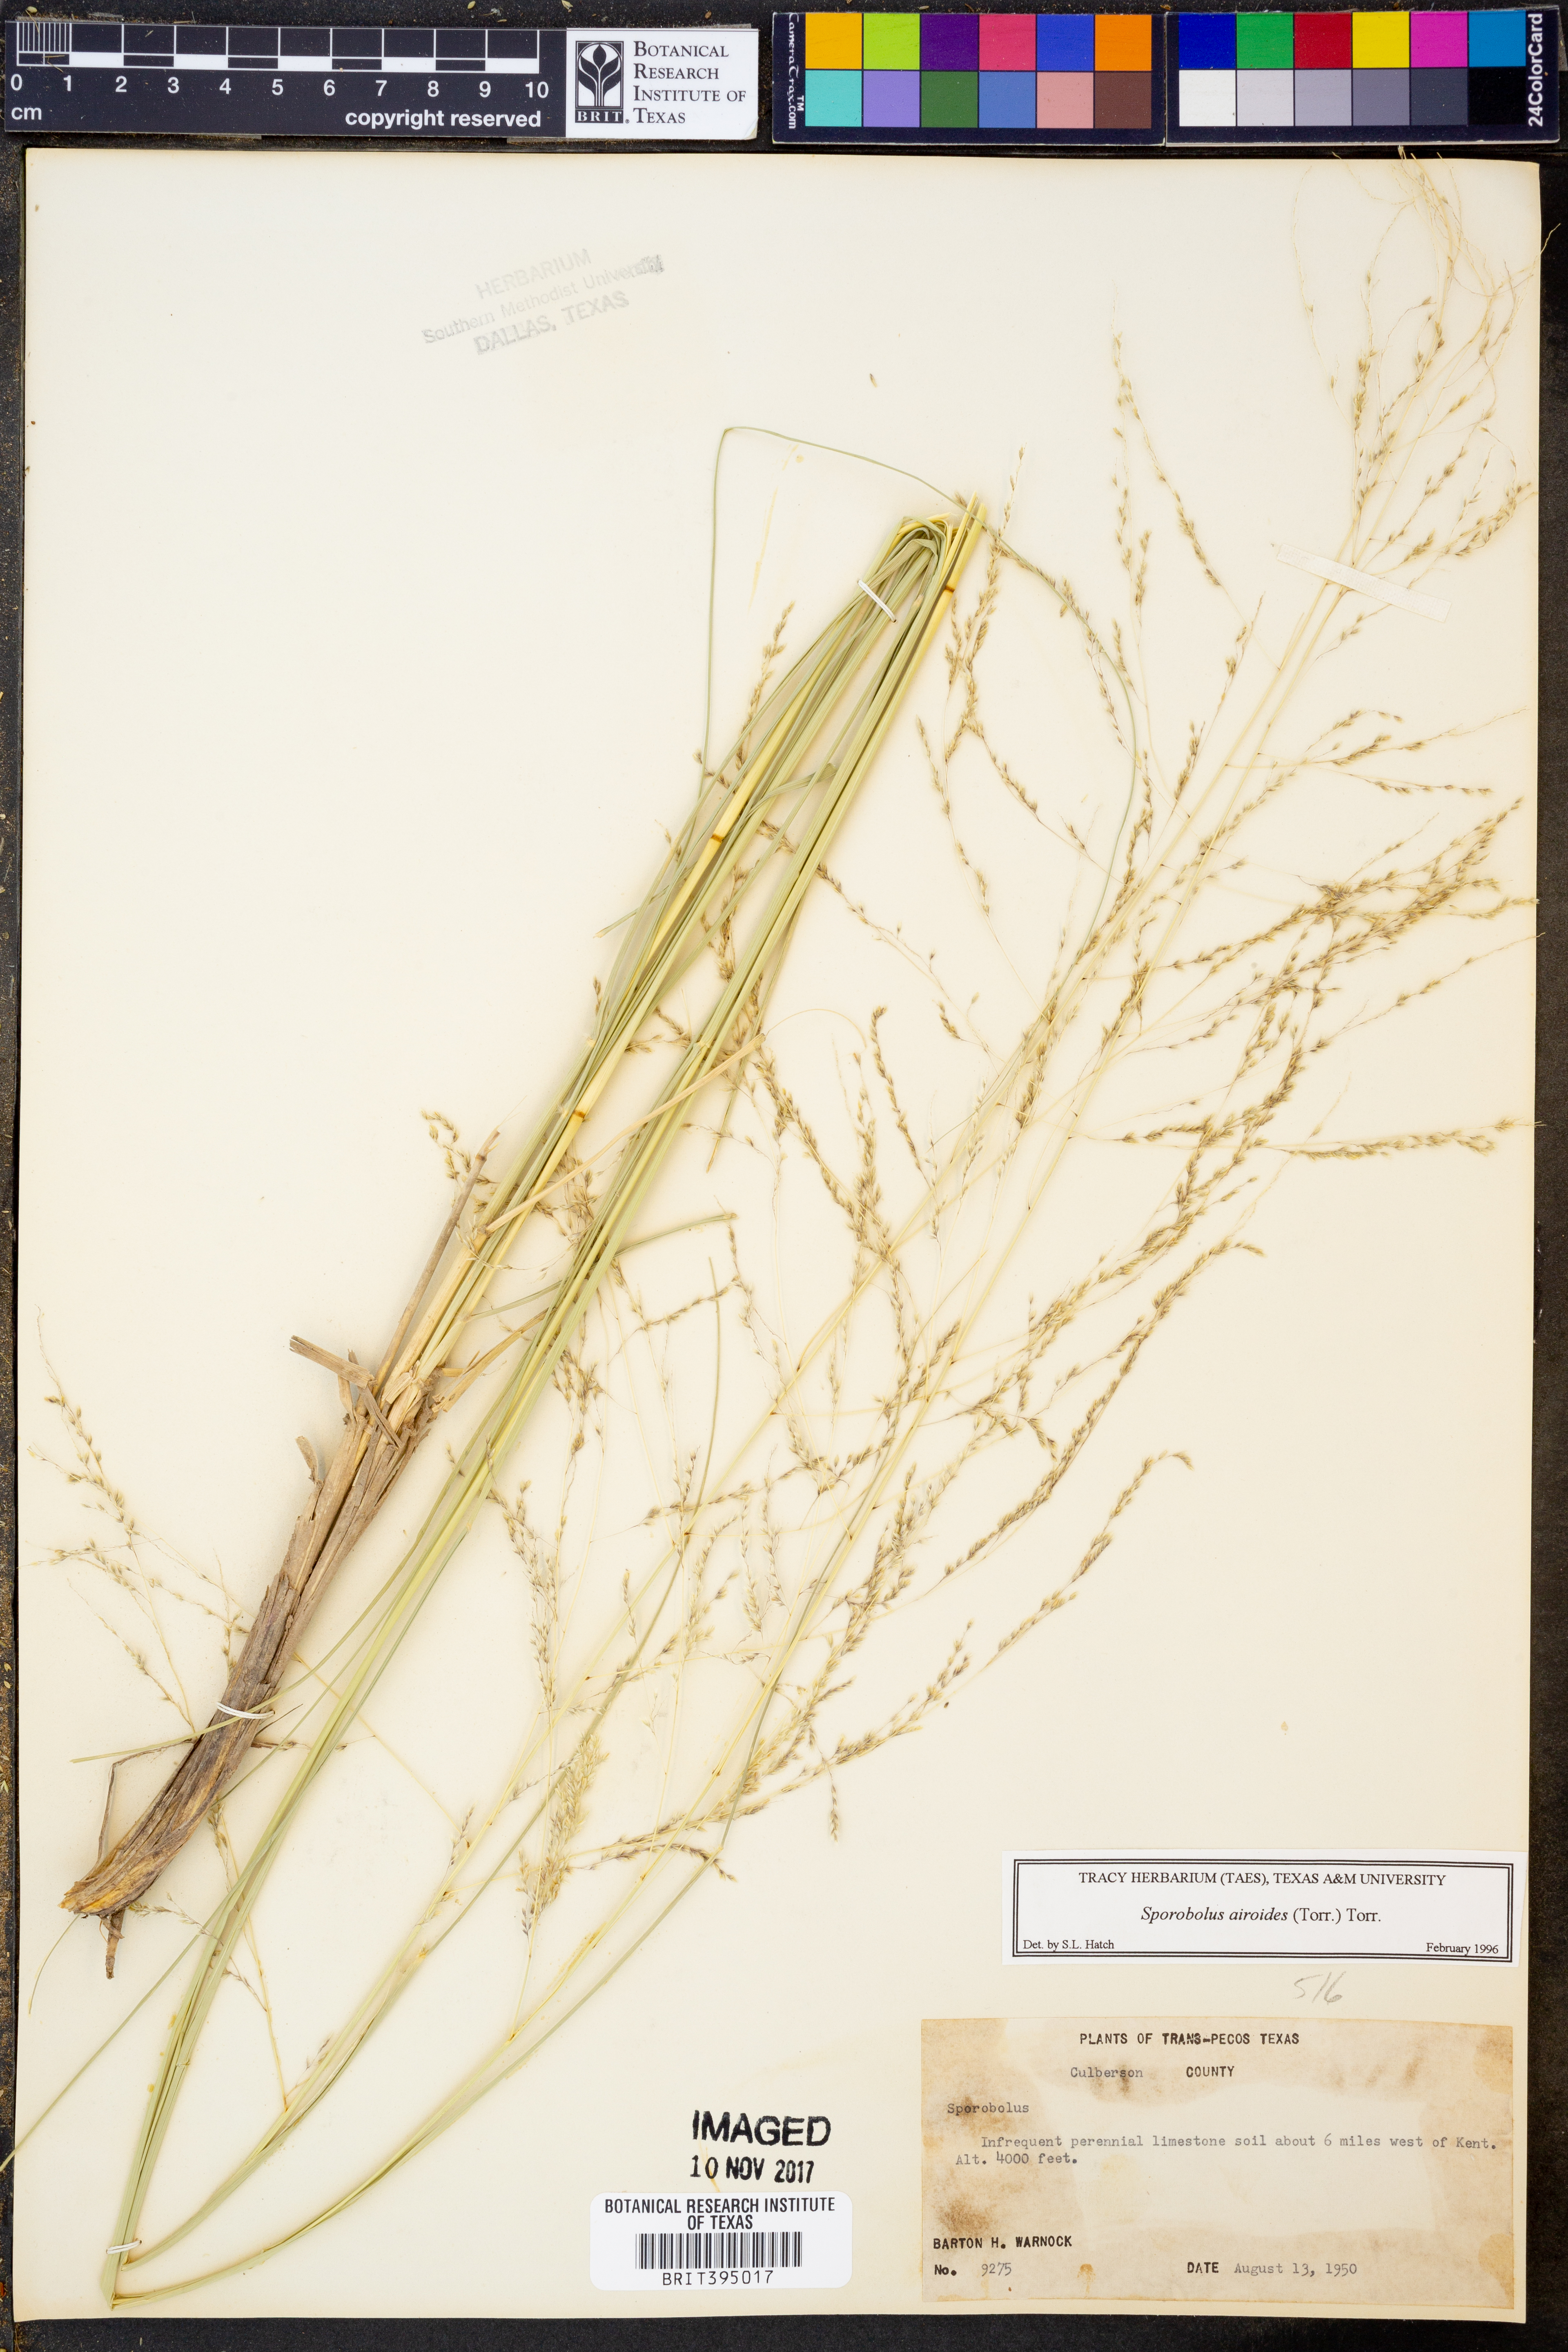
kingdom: Plantae
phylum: Tracheophyta
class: Liliopsida
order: Poales
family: Poaceae
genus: Sporobolus
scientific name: Sporobolus airoides
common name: Alkali sacaton
